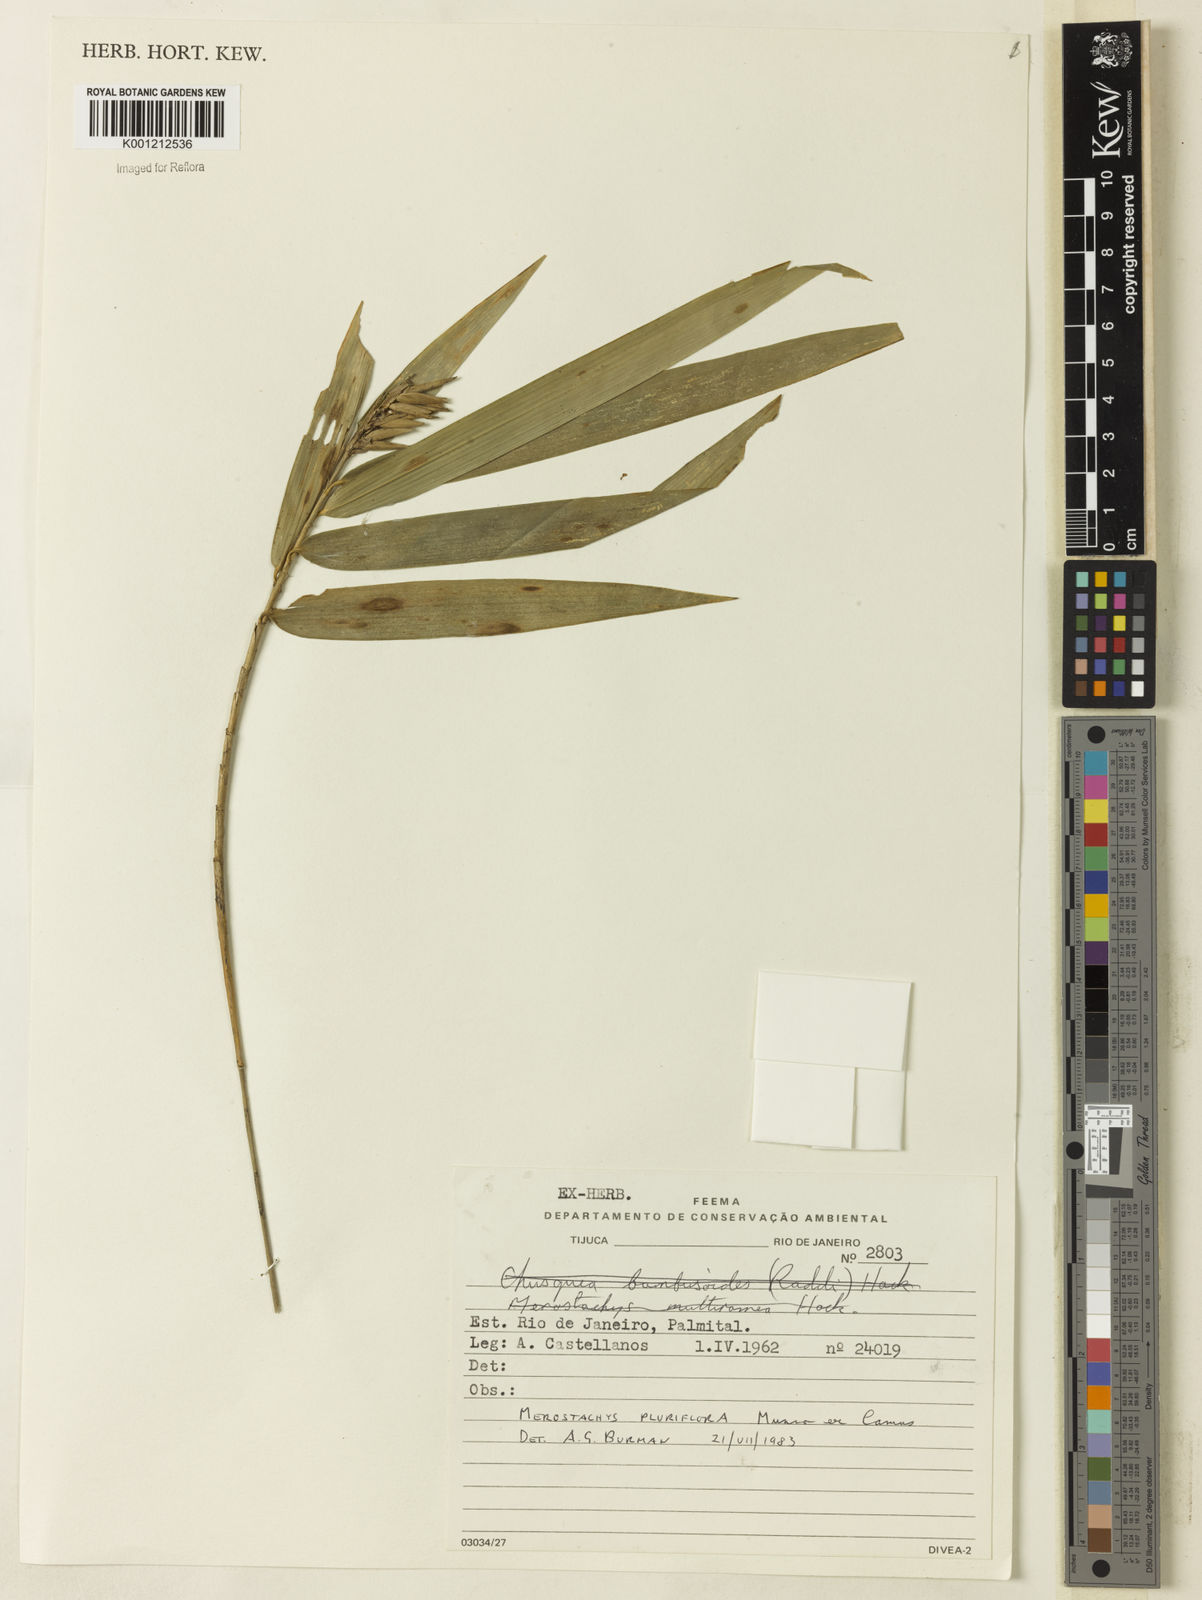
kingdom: Plantae
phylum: Tracheophyta
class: Liliopsida
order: Poales
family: Poaceae
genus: Merostachys
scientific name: Merostachys pluriflora
